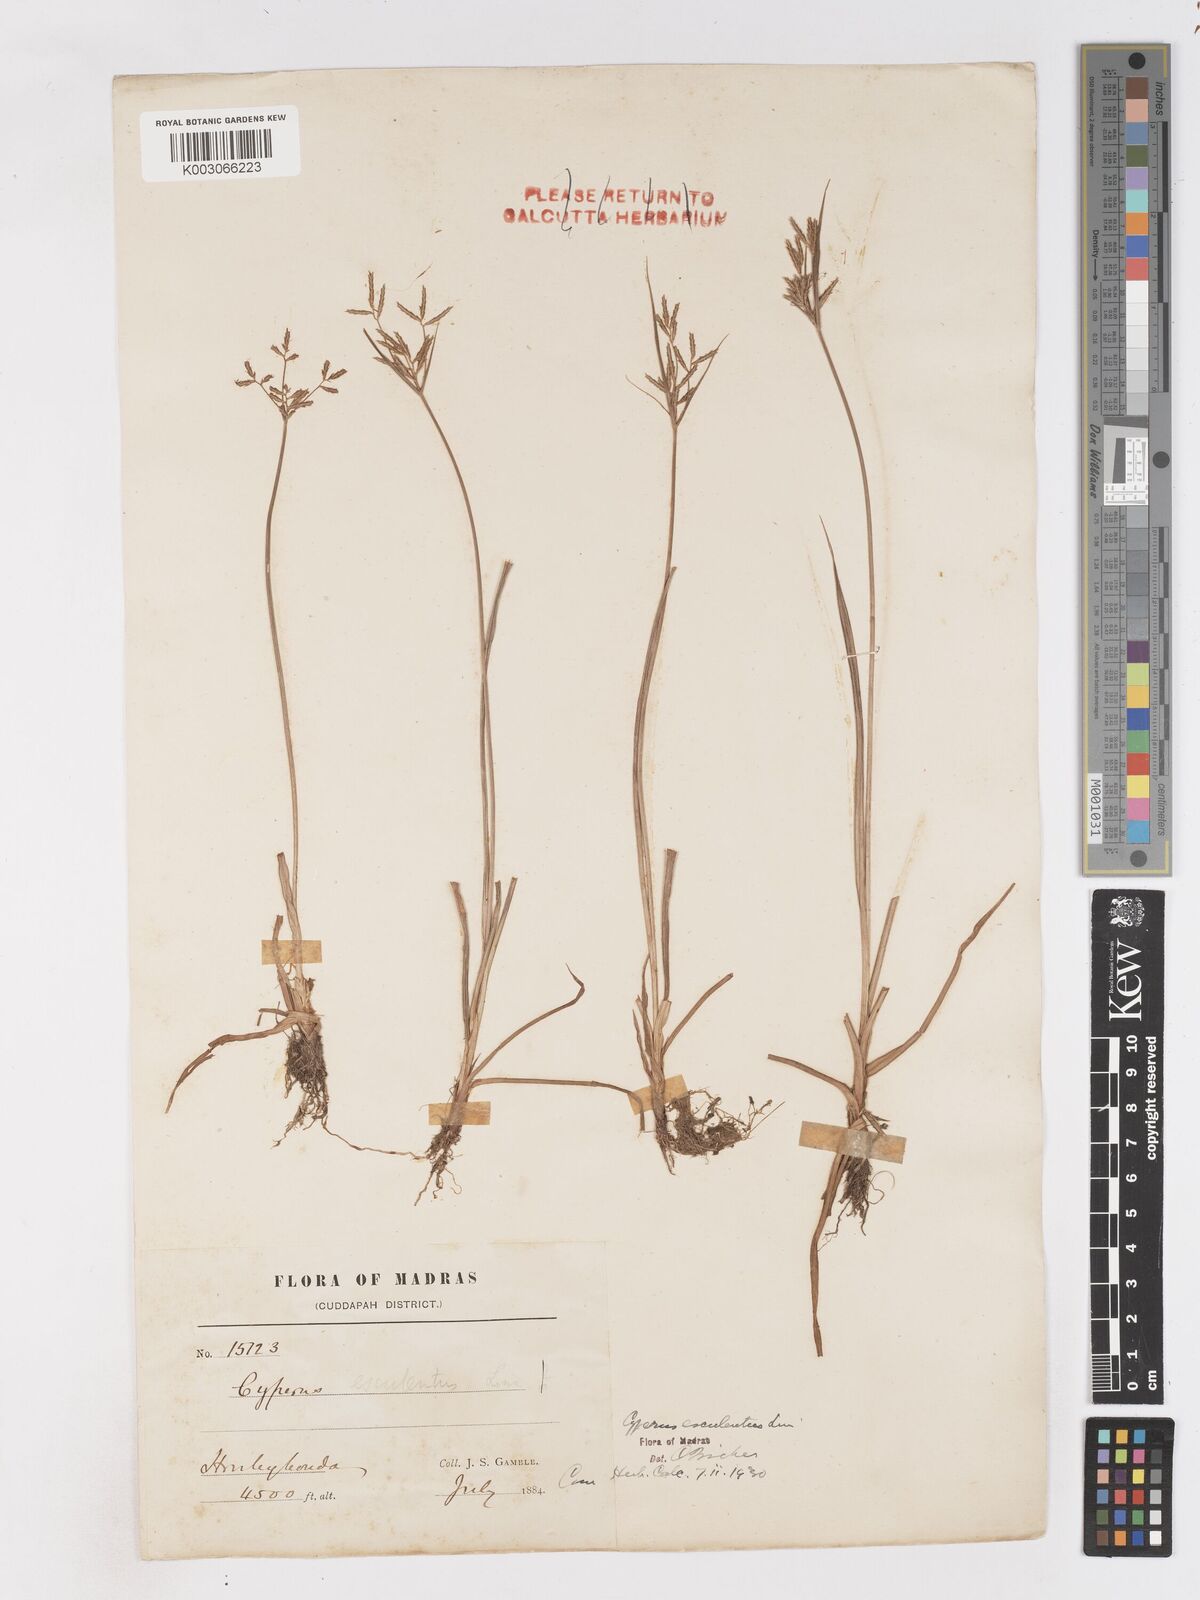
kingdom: Plantae
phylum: Tracheophyta
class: Liliopsida
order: Poales
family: Cyperaceae
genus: Cyperus
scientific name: Cyperus esculentus
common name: Yellow nutsedge
